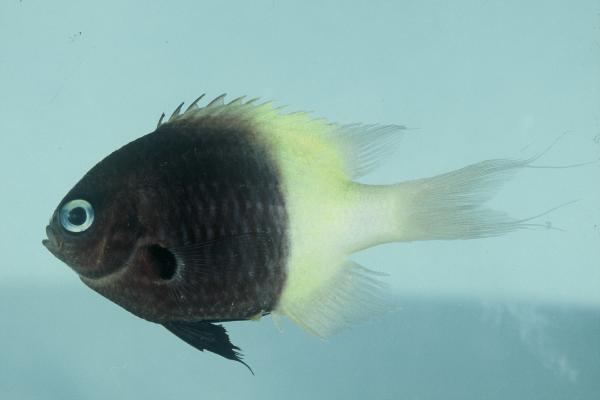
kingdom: Animalia
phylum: Chordata
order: Perciformes
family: Pomacentridae
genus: Chromis
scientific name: Chromis dimidiata
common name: Half-and-half chromis
